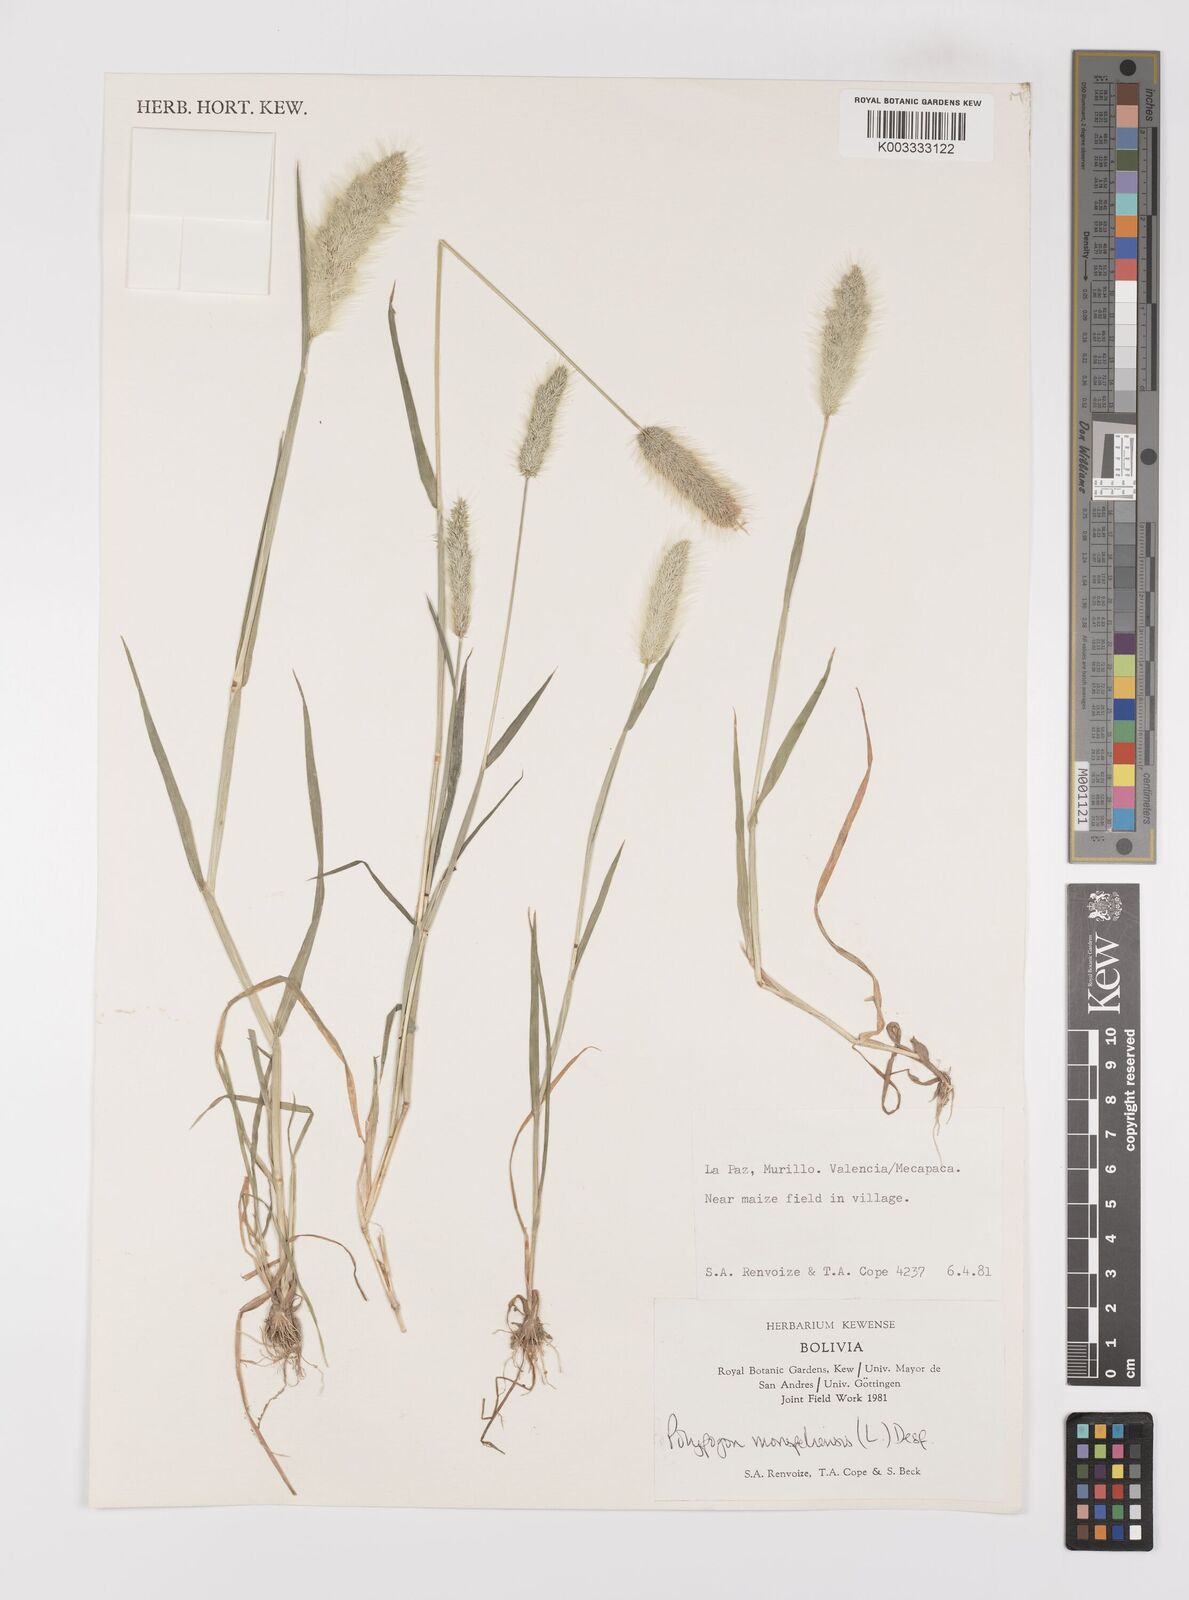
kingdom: Plantae
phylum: Tracheophyta
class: Liliopsida
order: Poales
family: Poaceae
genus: Polypogon
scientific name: Polypogon monspeliensis
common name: Annual rabbitsfoot grass
